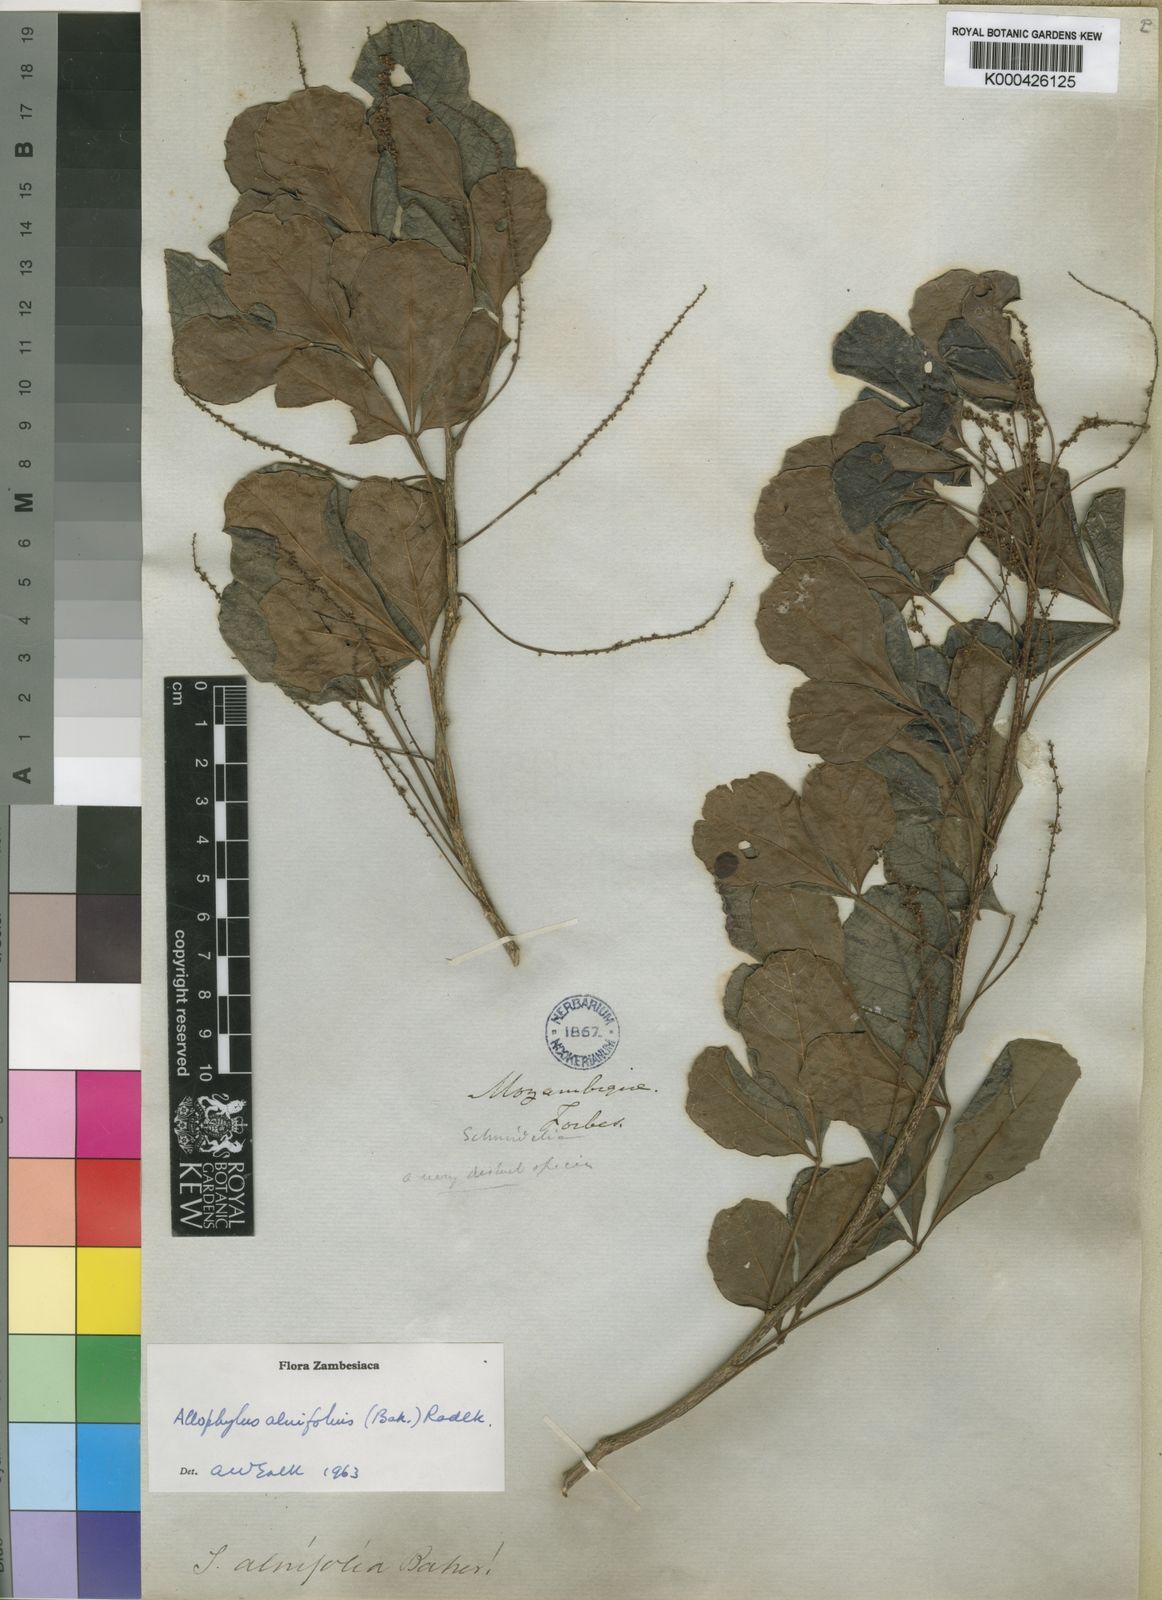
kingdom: Plantae
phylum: Tracheophyta
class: Magnoliopsida
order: Sapindales
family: Sapindaceae
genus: Allophylus
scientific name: Allophylus
